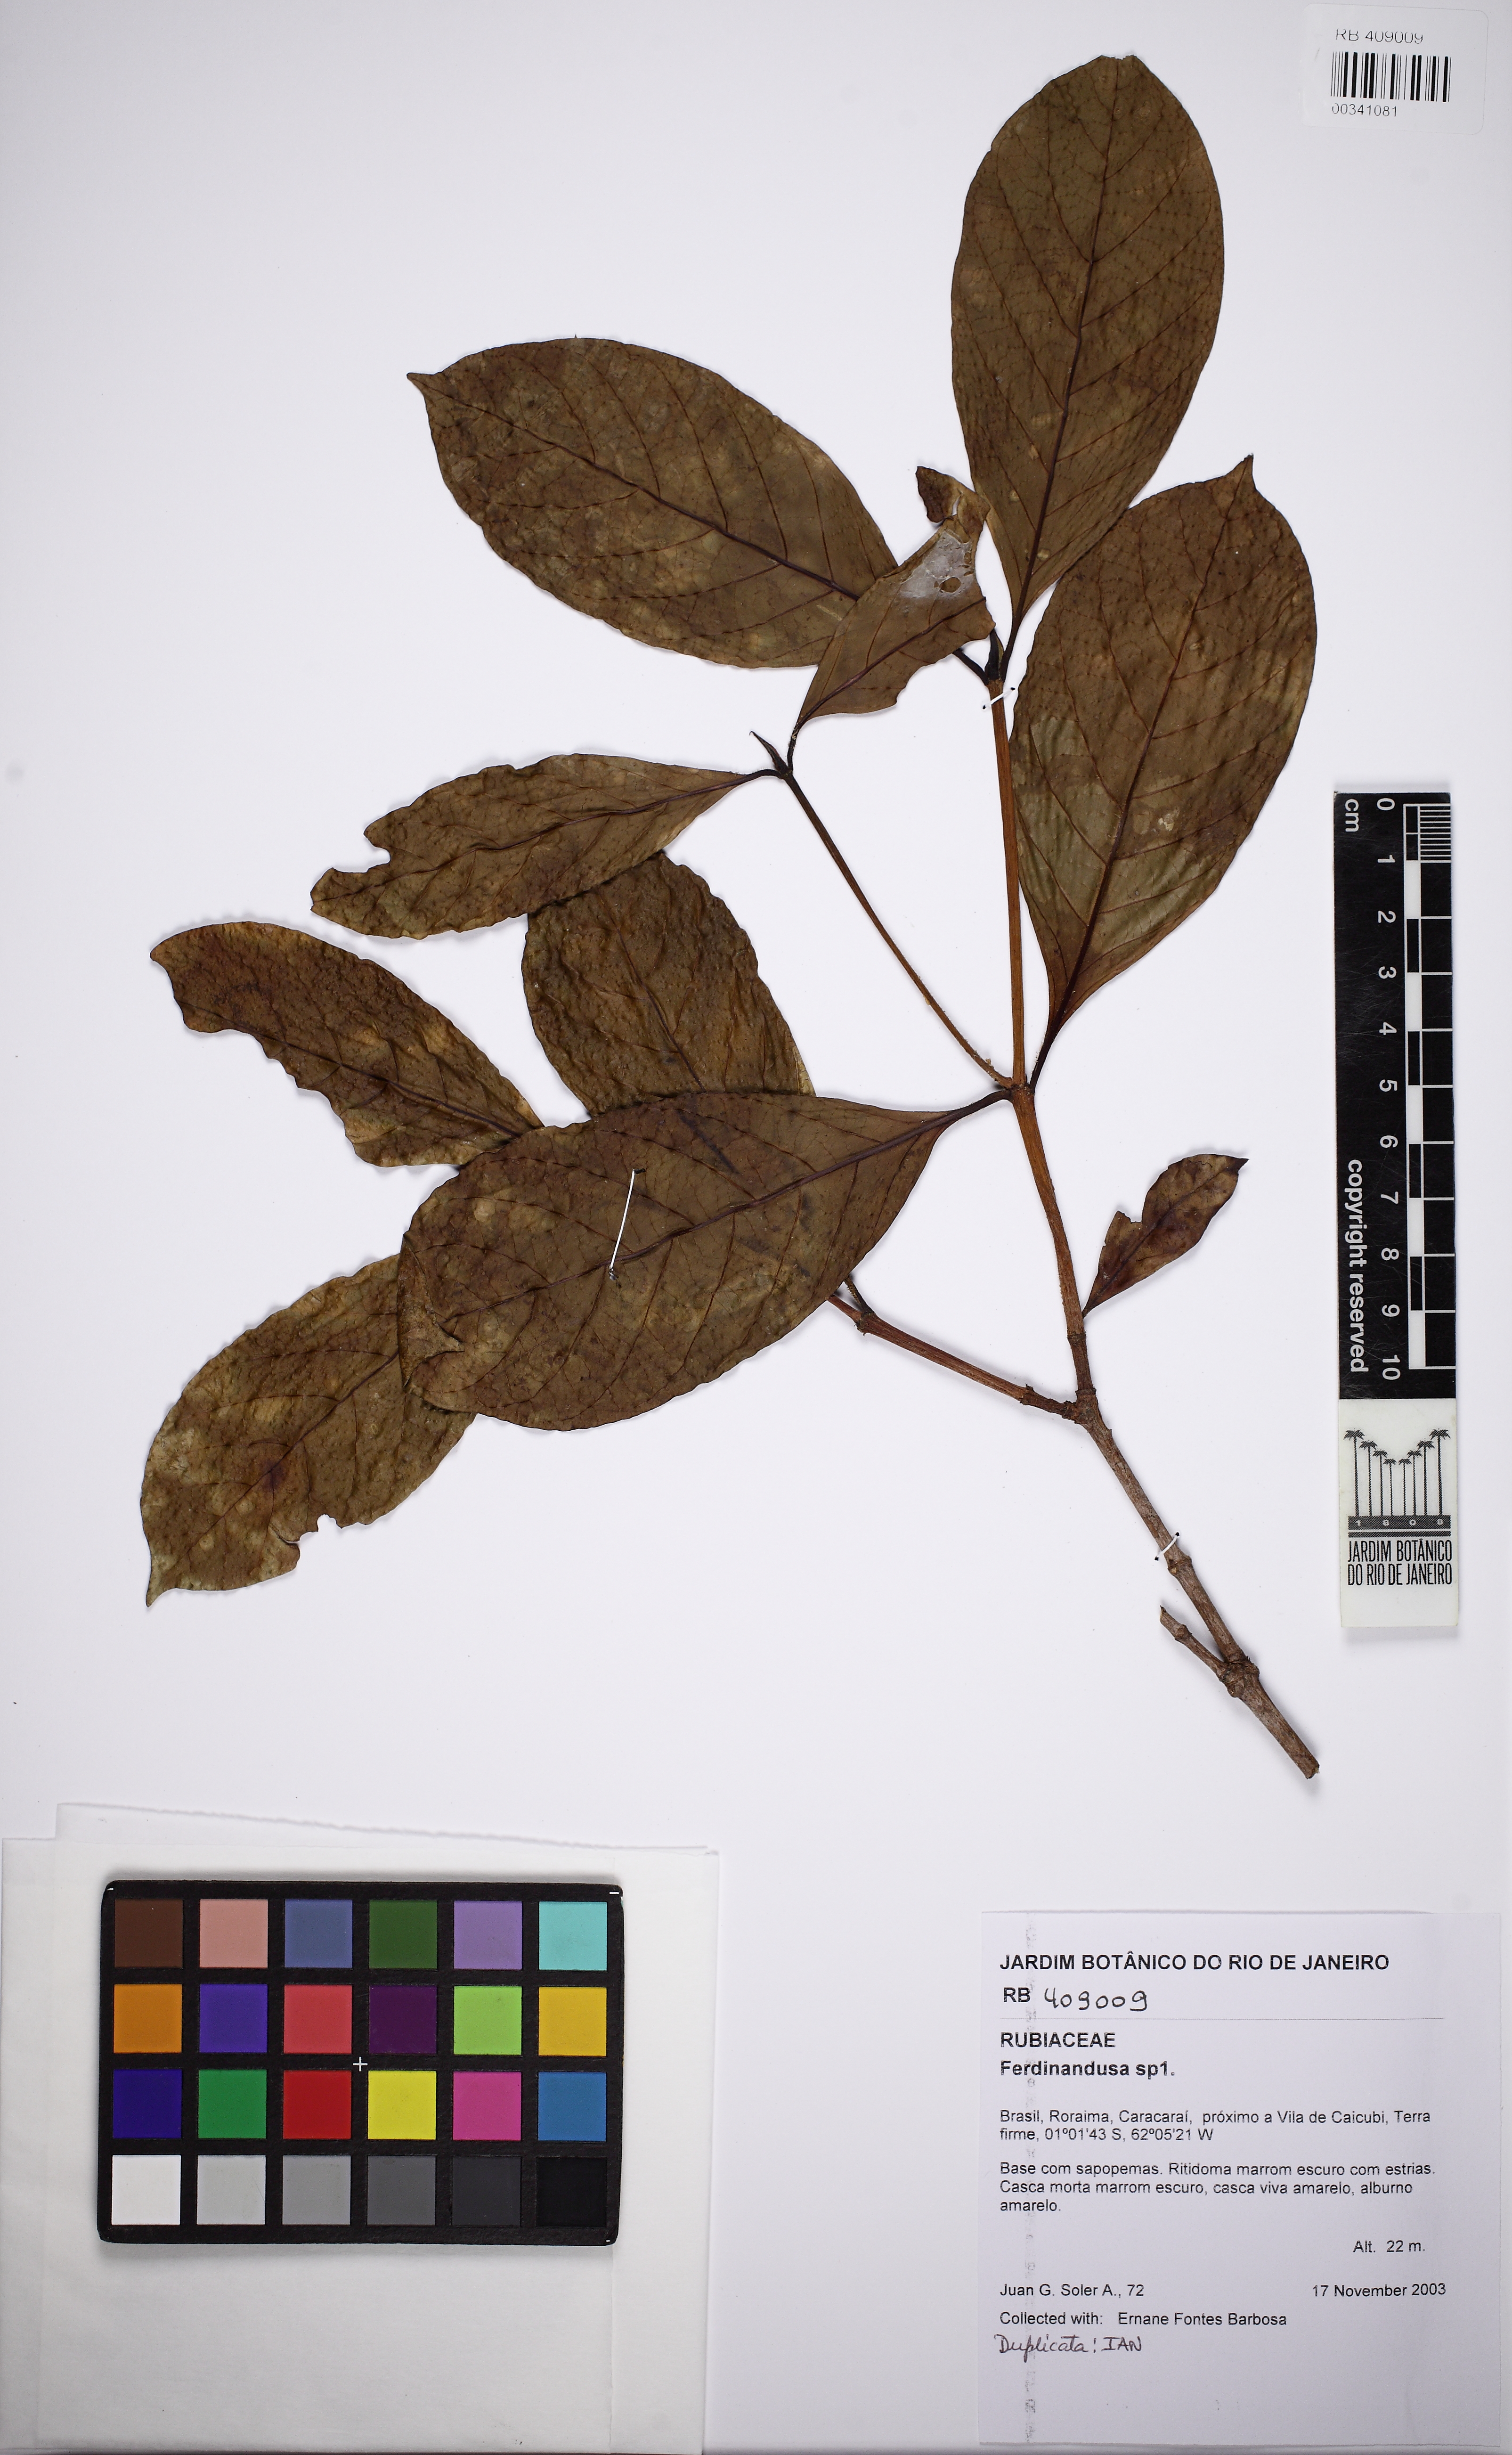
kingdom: Plantae
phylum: Tracheophyta
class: Magnoliopsida
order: Gentianales
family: Rubiaceae
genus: Ferdinandusa
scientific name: Ferdinandusa
